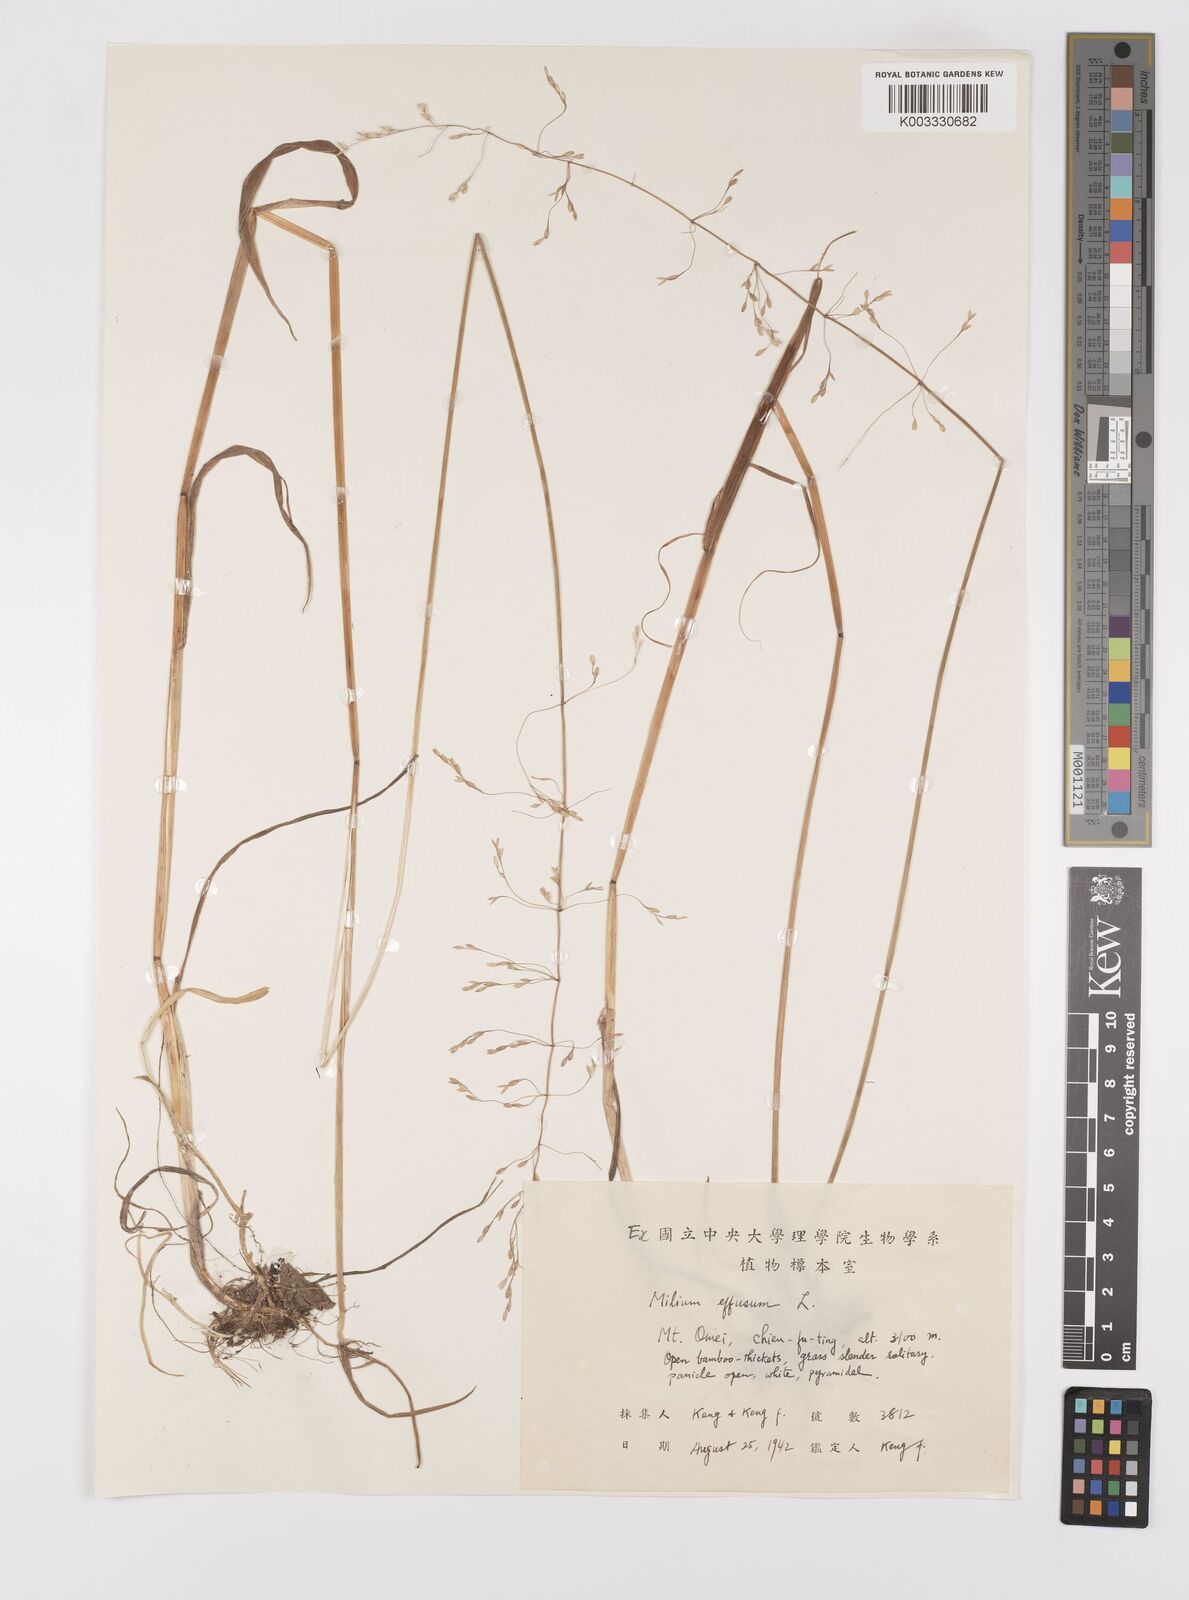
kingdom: Plantae
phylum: Tracheophyta
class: Liliopsida
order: Poales
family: Poaceae
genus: Milium
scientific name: Milium effusum
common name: Wood millet
